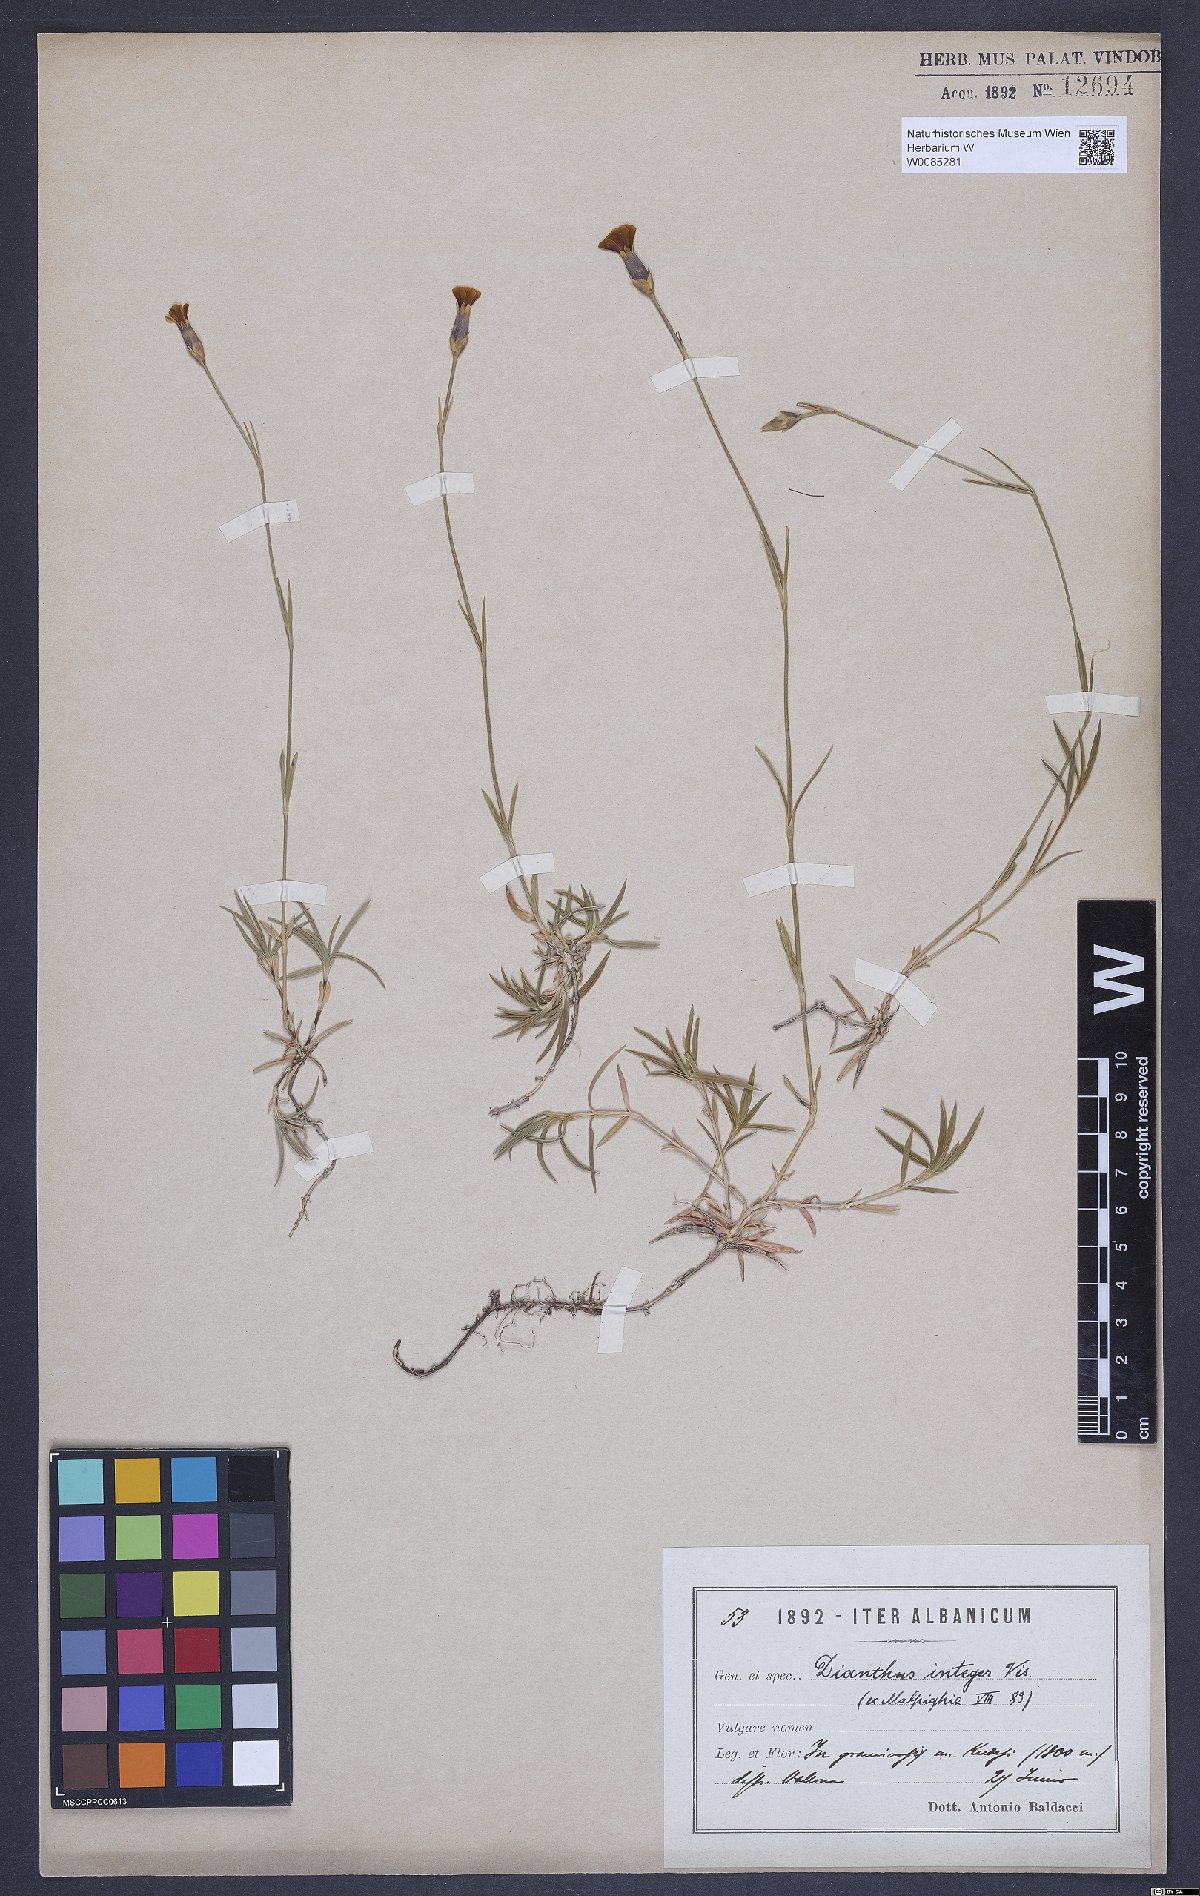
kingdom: Plantae
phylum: Tracheophyta
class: Magnoliopsida
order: Caryophyllales
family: Caryophyllaceae
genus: Dianthus
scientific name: Dianthus petraeus
